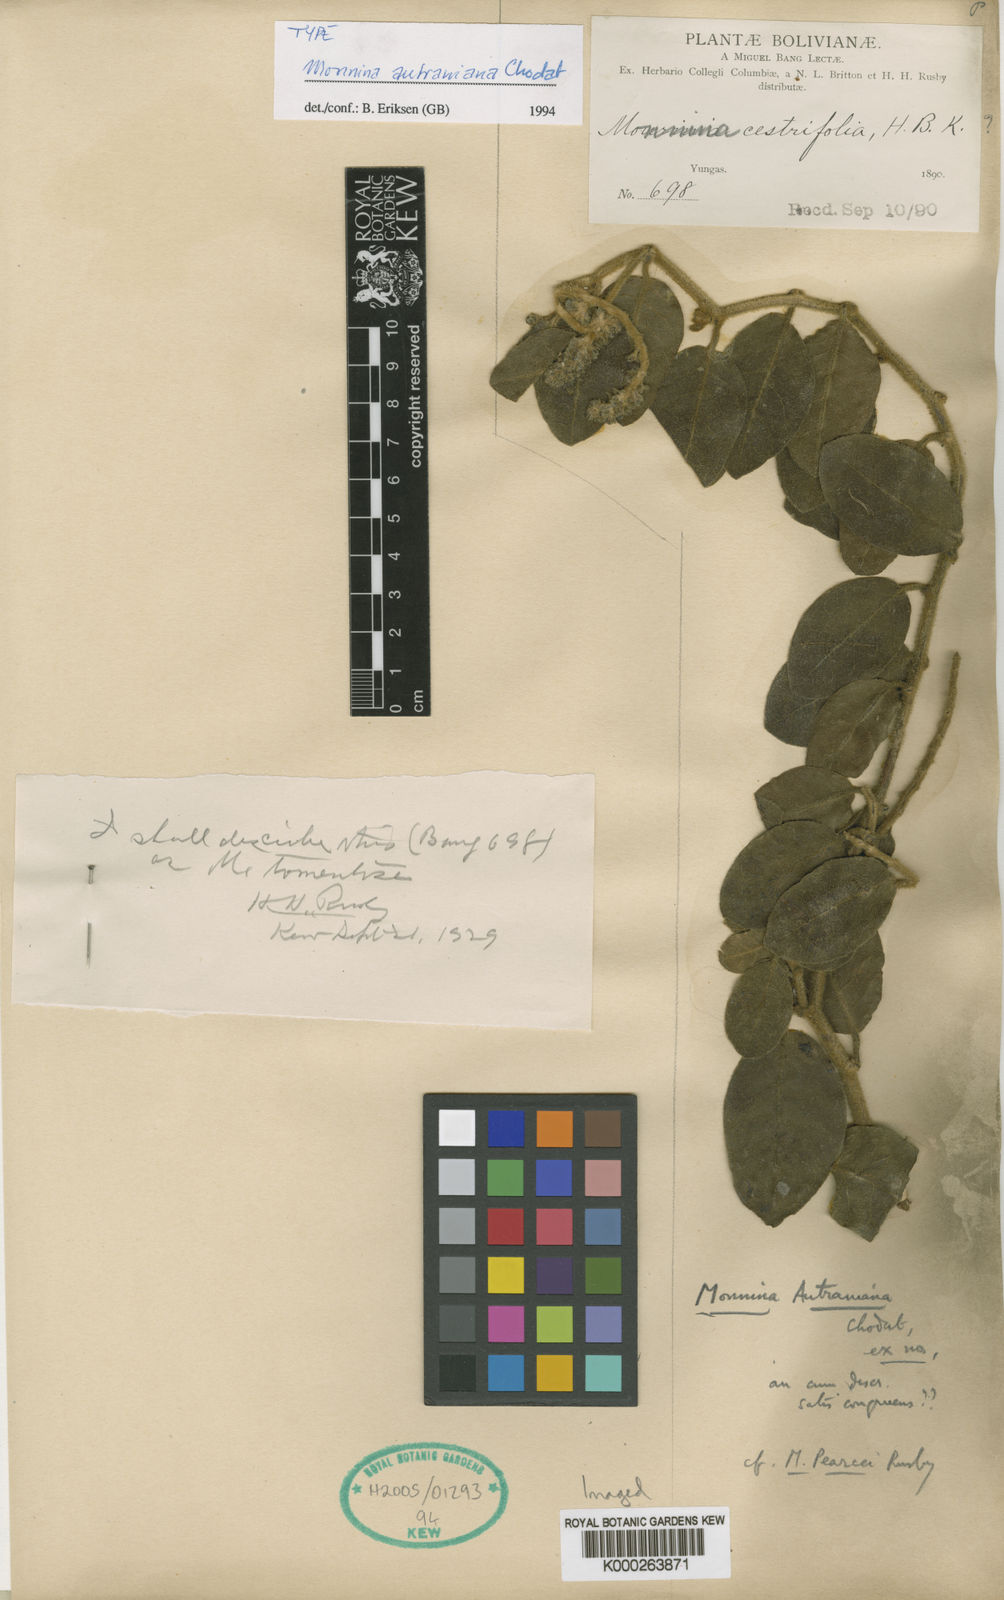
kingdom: Plantae
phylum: Tracheophyta
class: Magnoliopsida
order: Fabales
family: Polygalaceae
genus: Monnina
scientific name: Monnina autraniana
